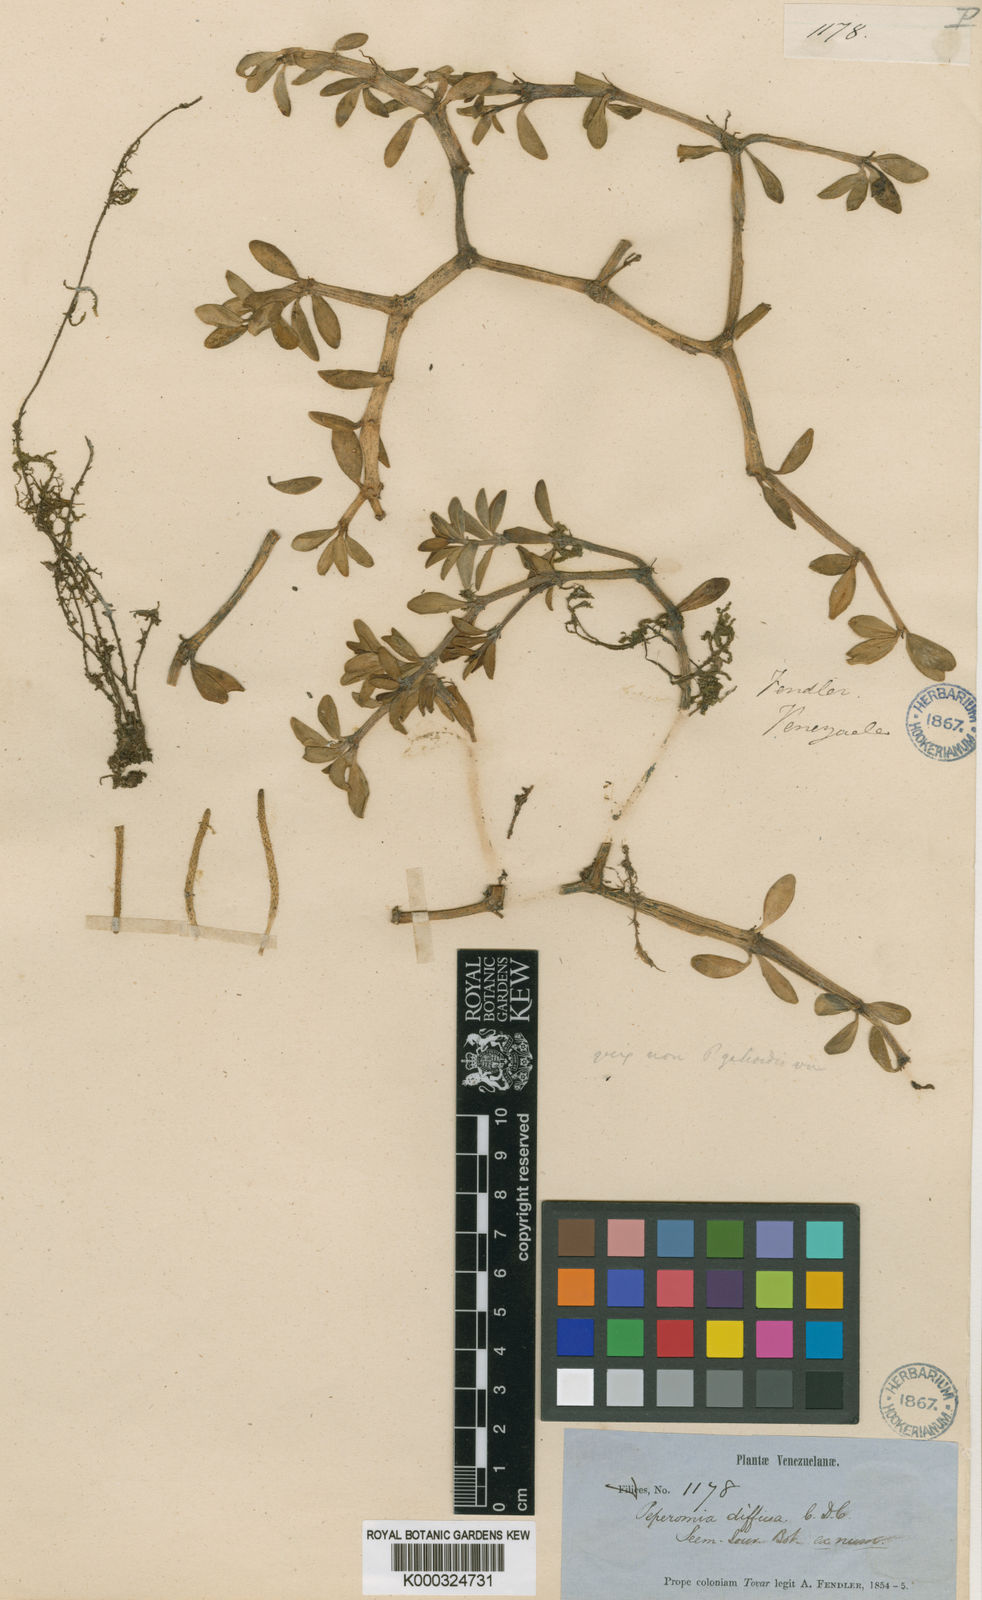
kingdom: Plantae
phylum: Tracheophyta
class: Magnoliopsida
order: Piperales
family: Piperaceae
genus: Peperomia
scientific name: Peperomia loxensis
